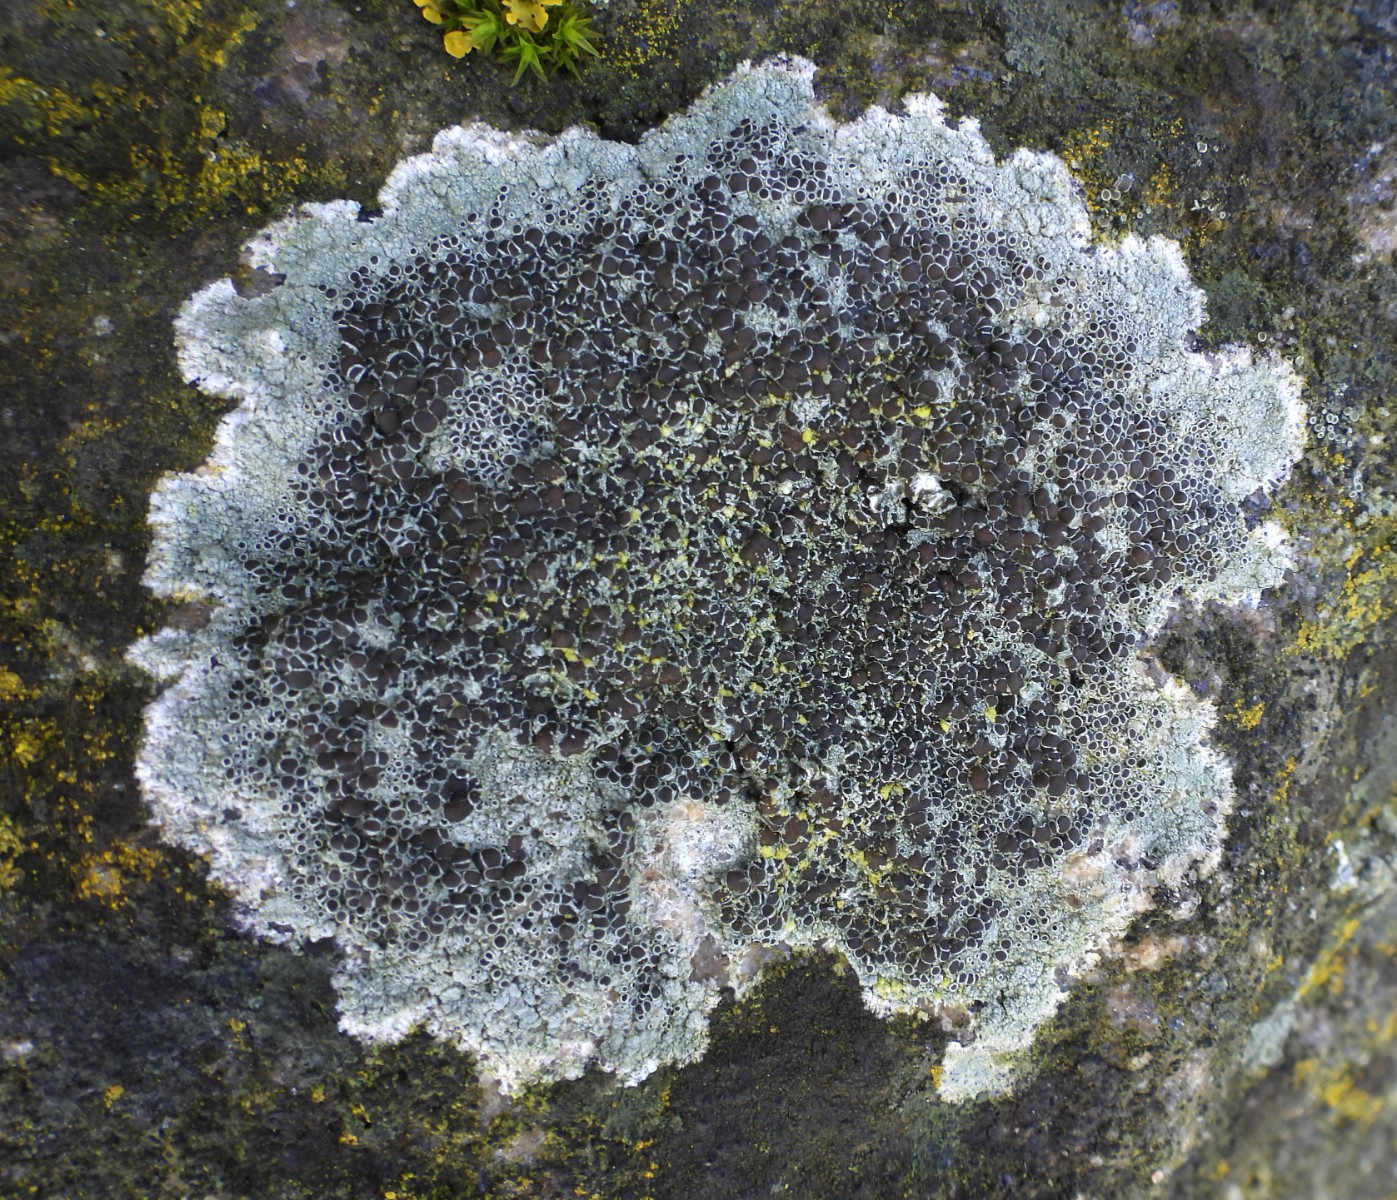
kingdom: Fungi
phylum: Ascomycota
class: Lecanoromycetes
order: Lecanorales
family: Lecanoraceae
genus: Lecanora
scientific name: Lecanora campestris
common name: mur-kantskivelav
